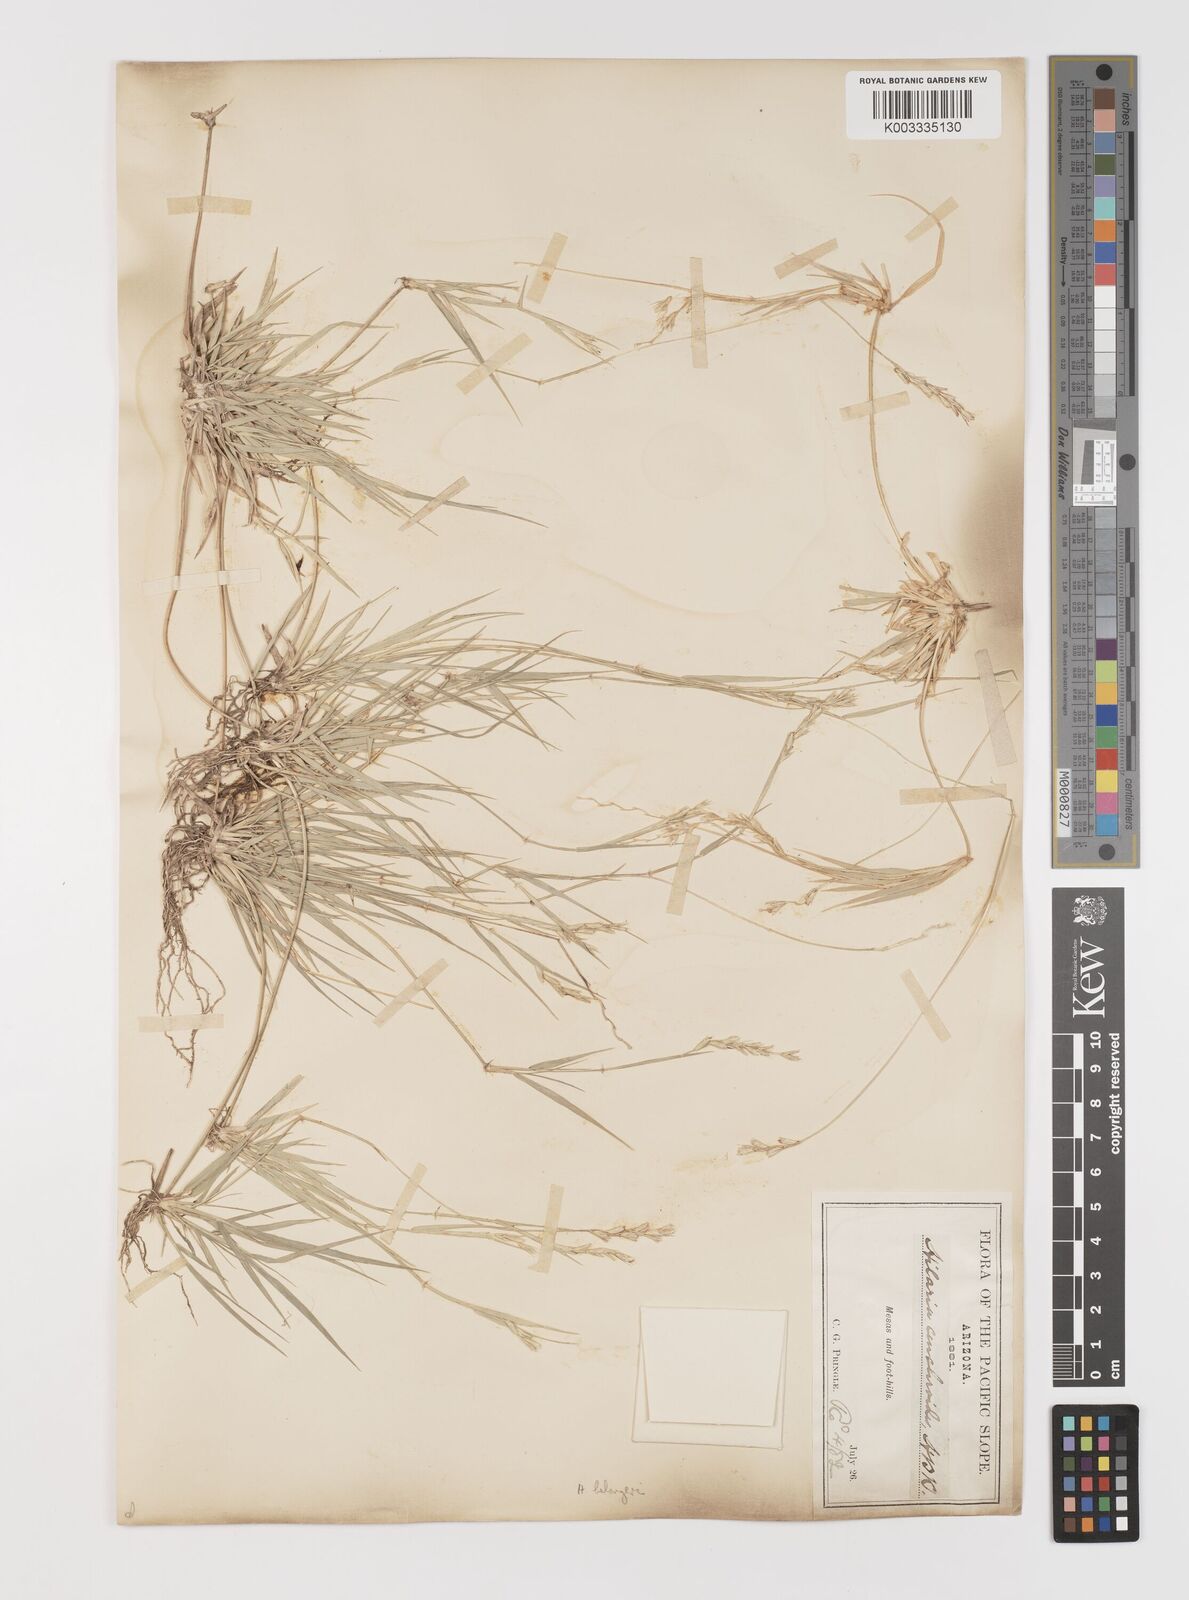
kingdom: Plantae
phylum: Tracheophyta
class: Liliopsida
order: Poales
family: Poaceae
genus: Hilaria
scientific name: Hilaria belangeri
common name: Curly-mesquite
